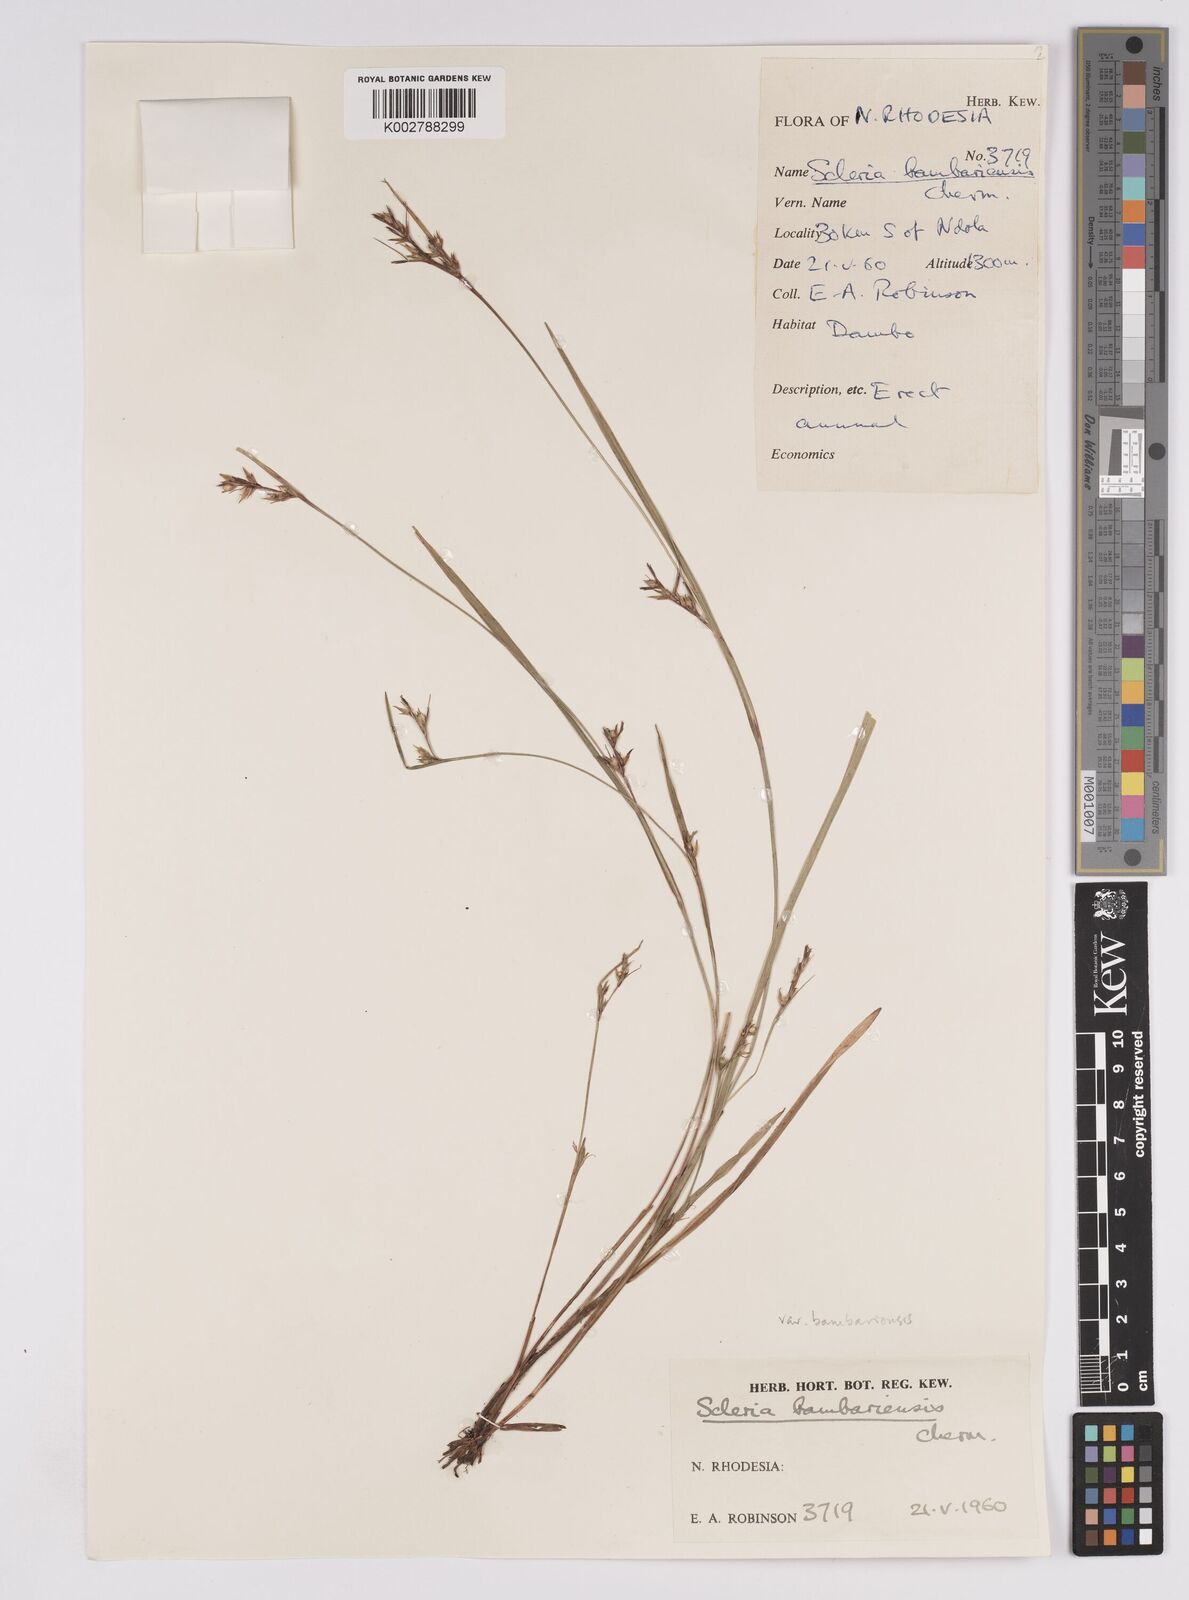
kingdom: Plantae
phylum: Tracheophyta
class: Liliopsida
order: Poales
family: Cyperaceae
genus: Scleria
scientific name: Scleria bambariensis
